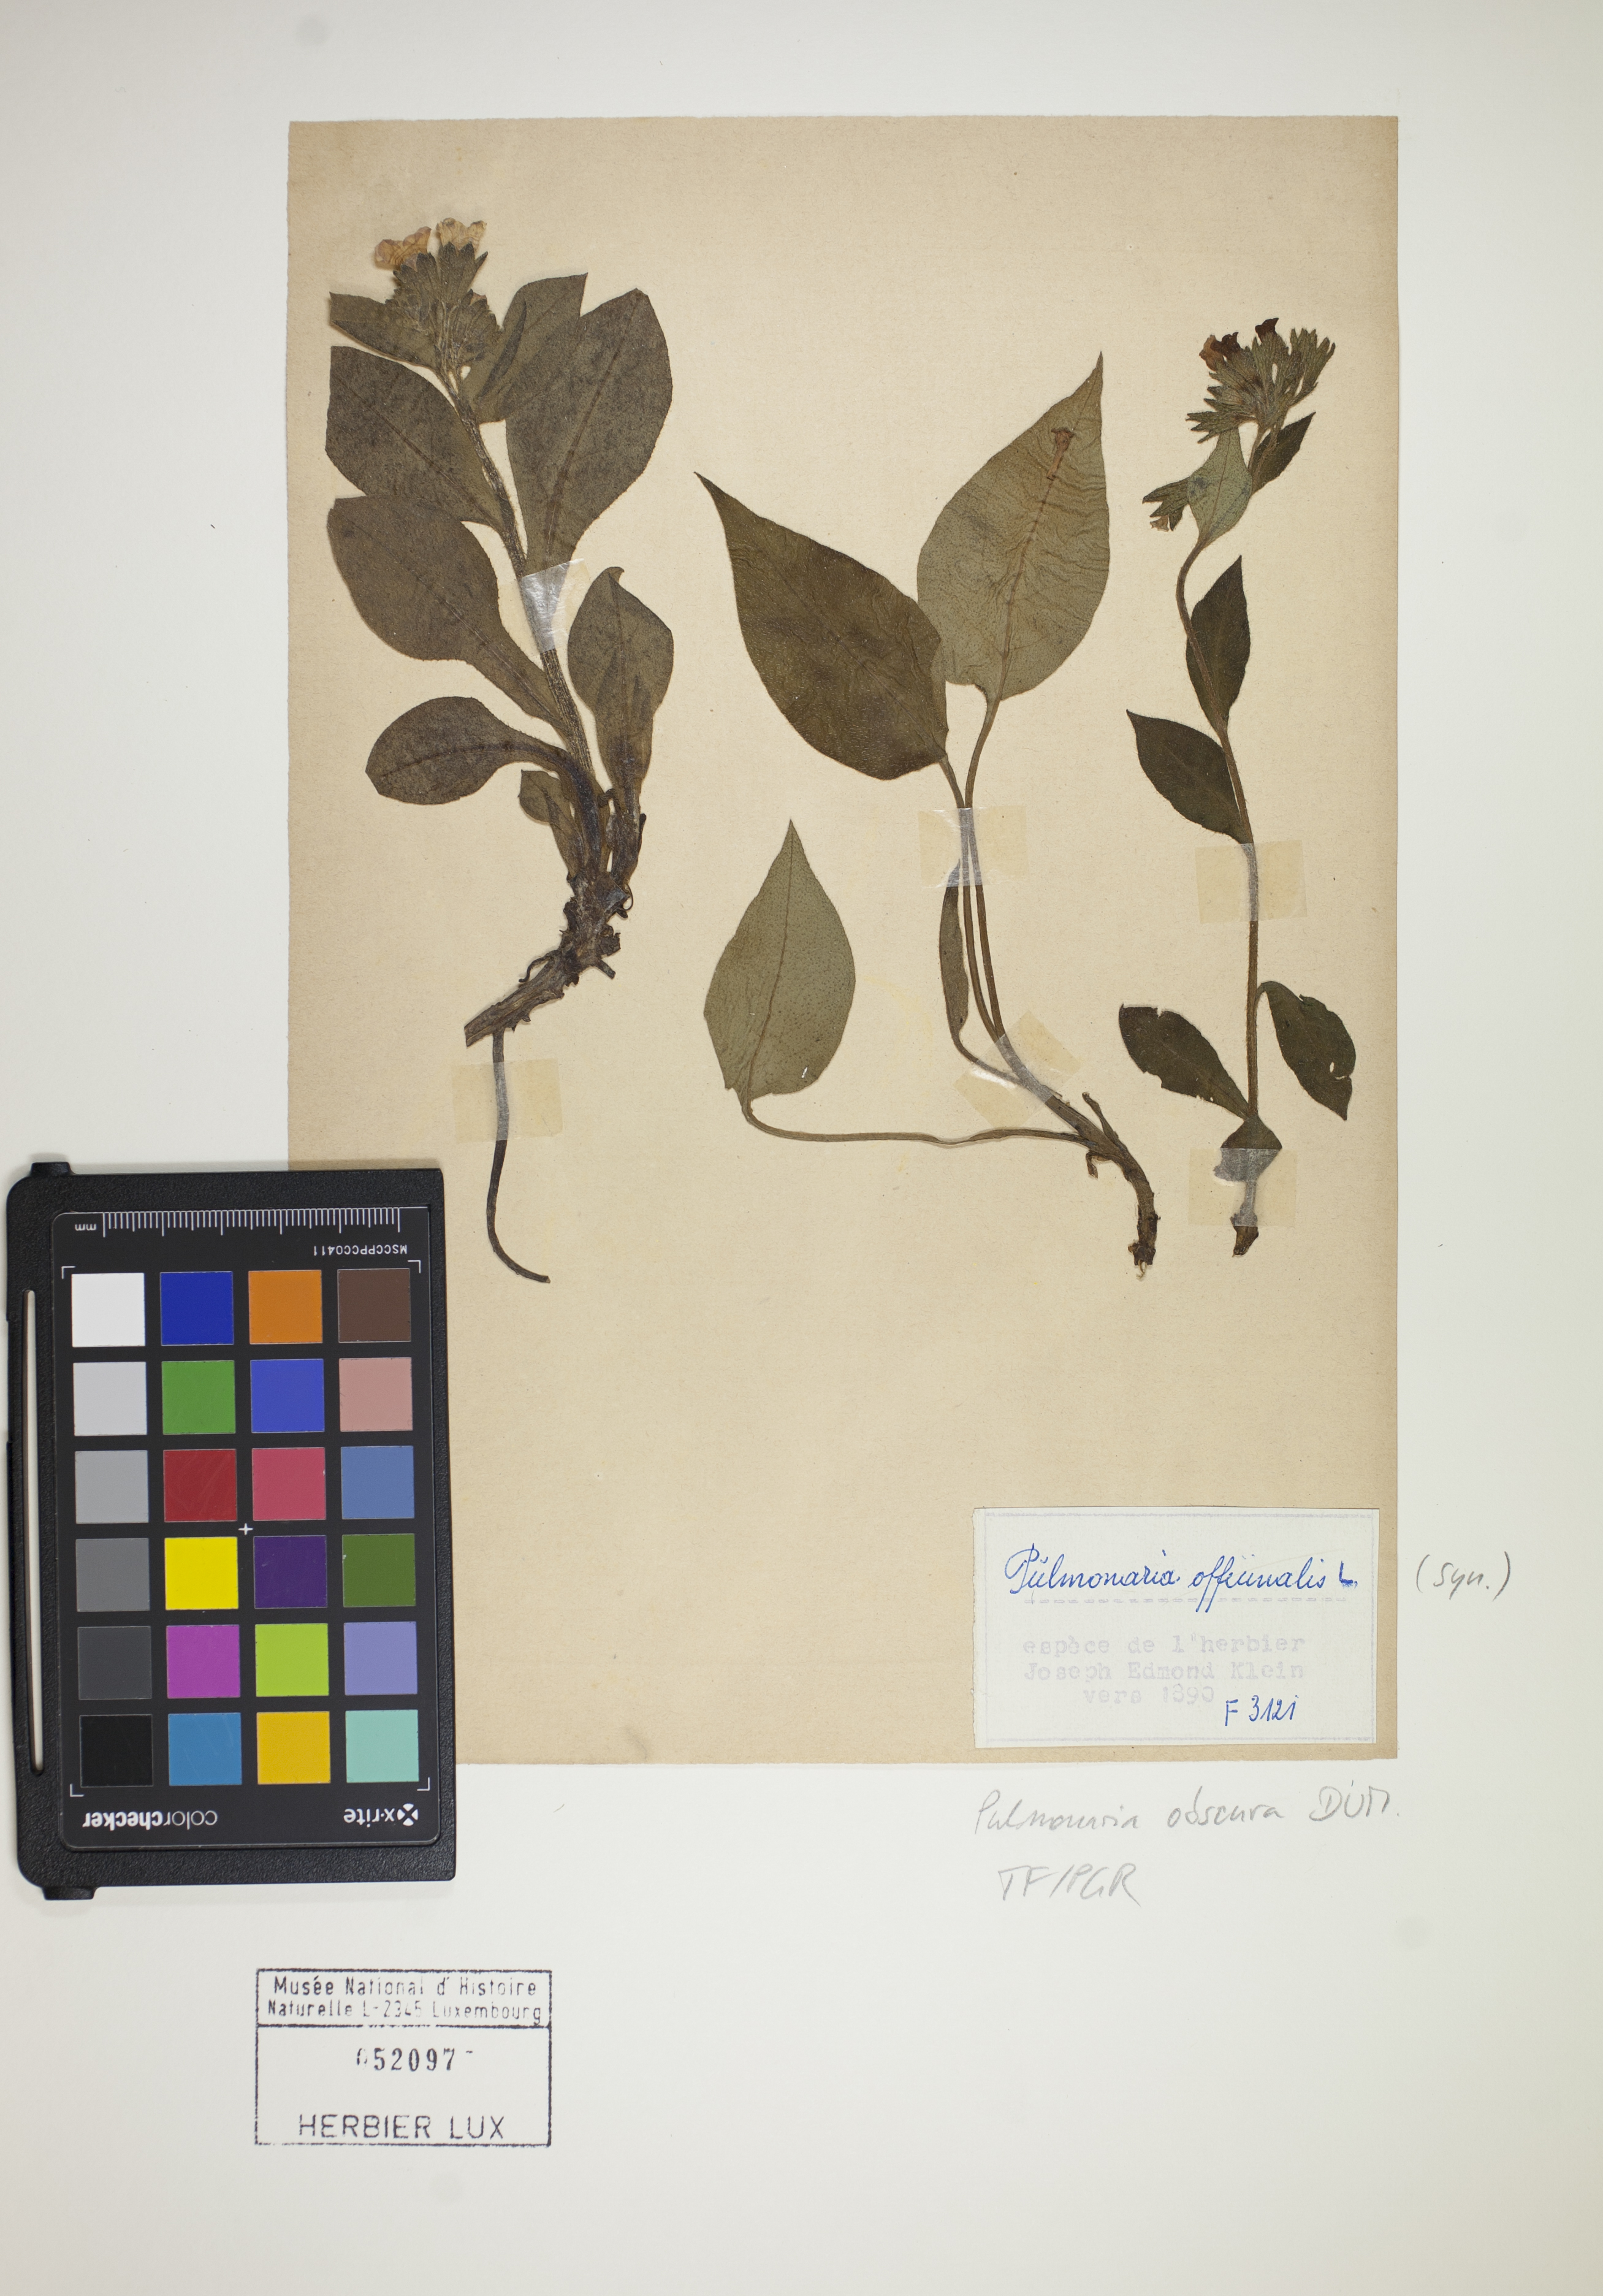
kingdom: Plantae
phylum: Tracheophyta
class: Magnoliopsida
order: Boraginales
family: Boraginaceae
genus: Pulmonaria
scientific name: Pulmonaria obscura
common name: Suffolk lungwort
